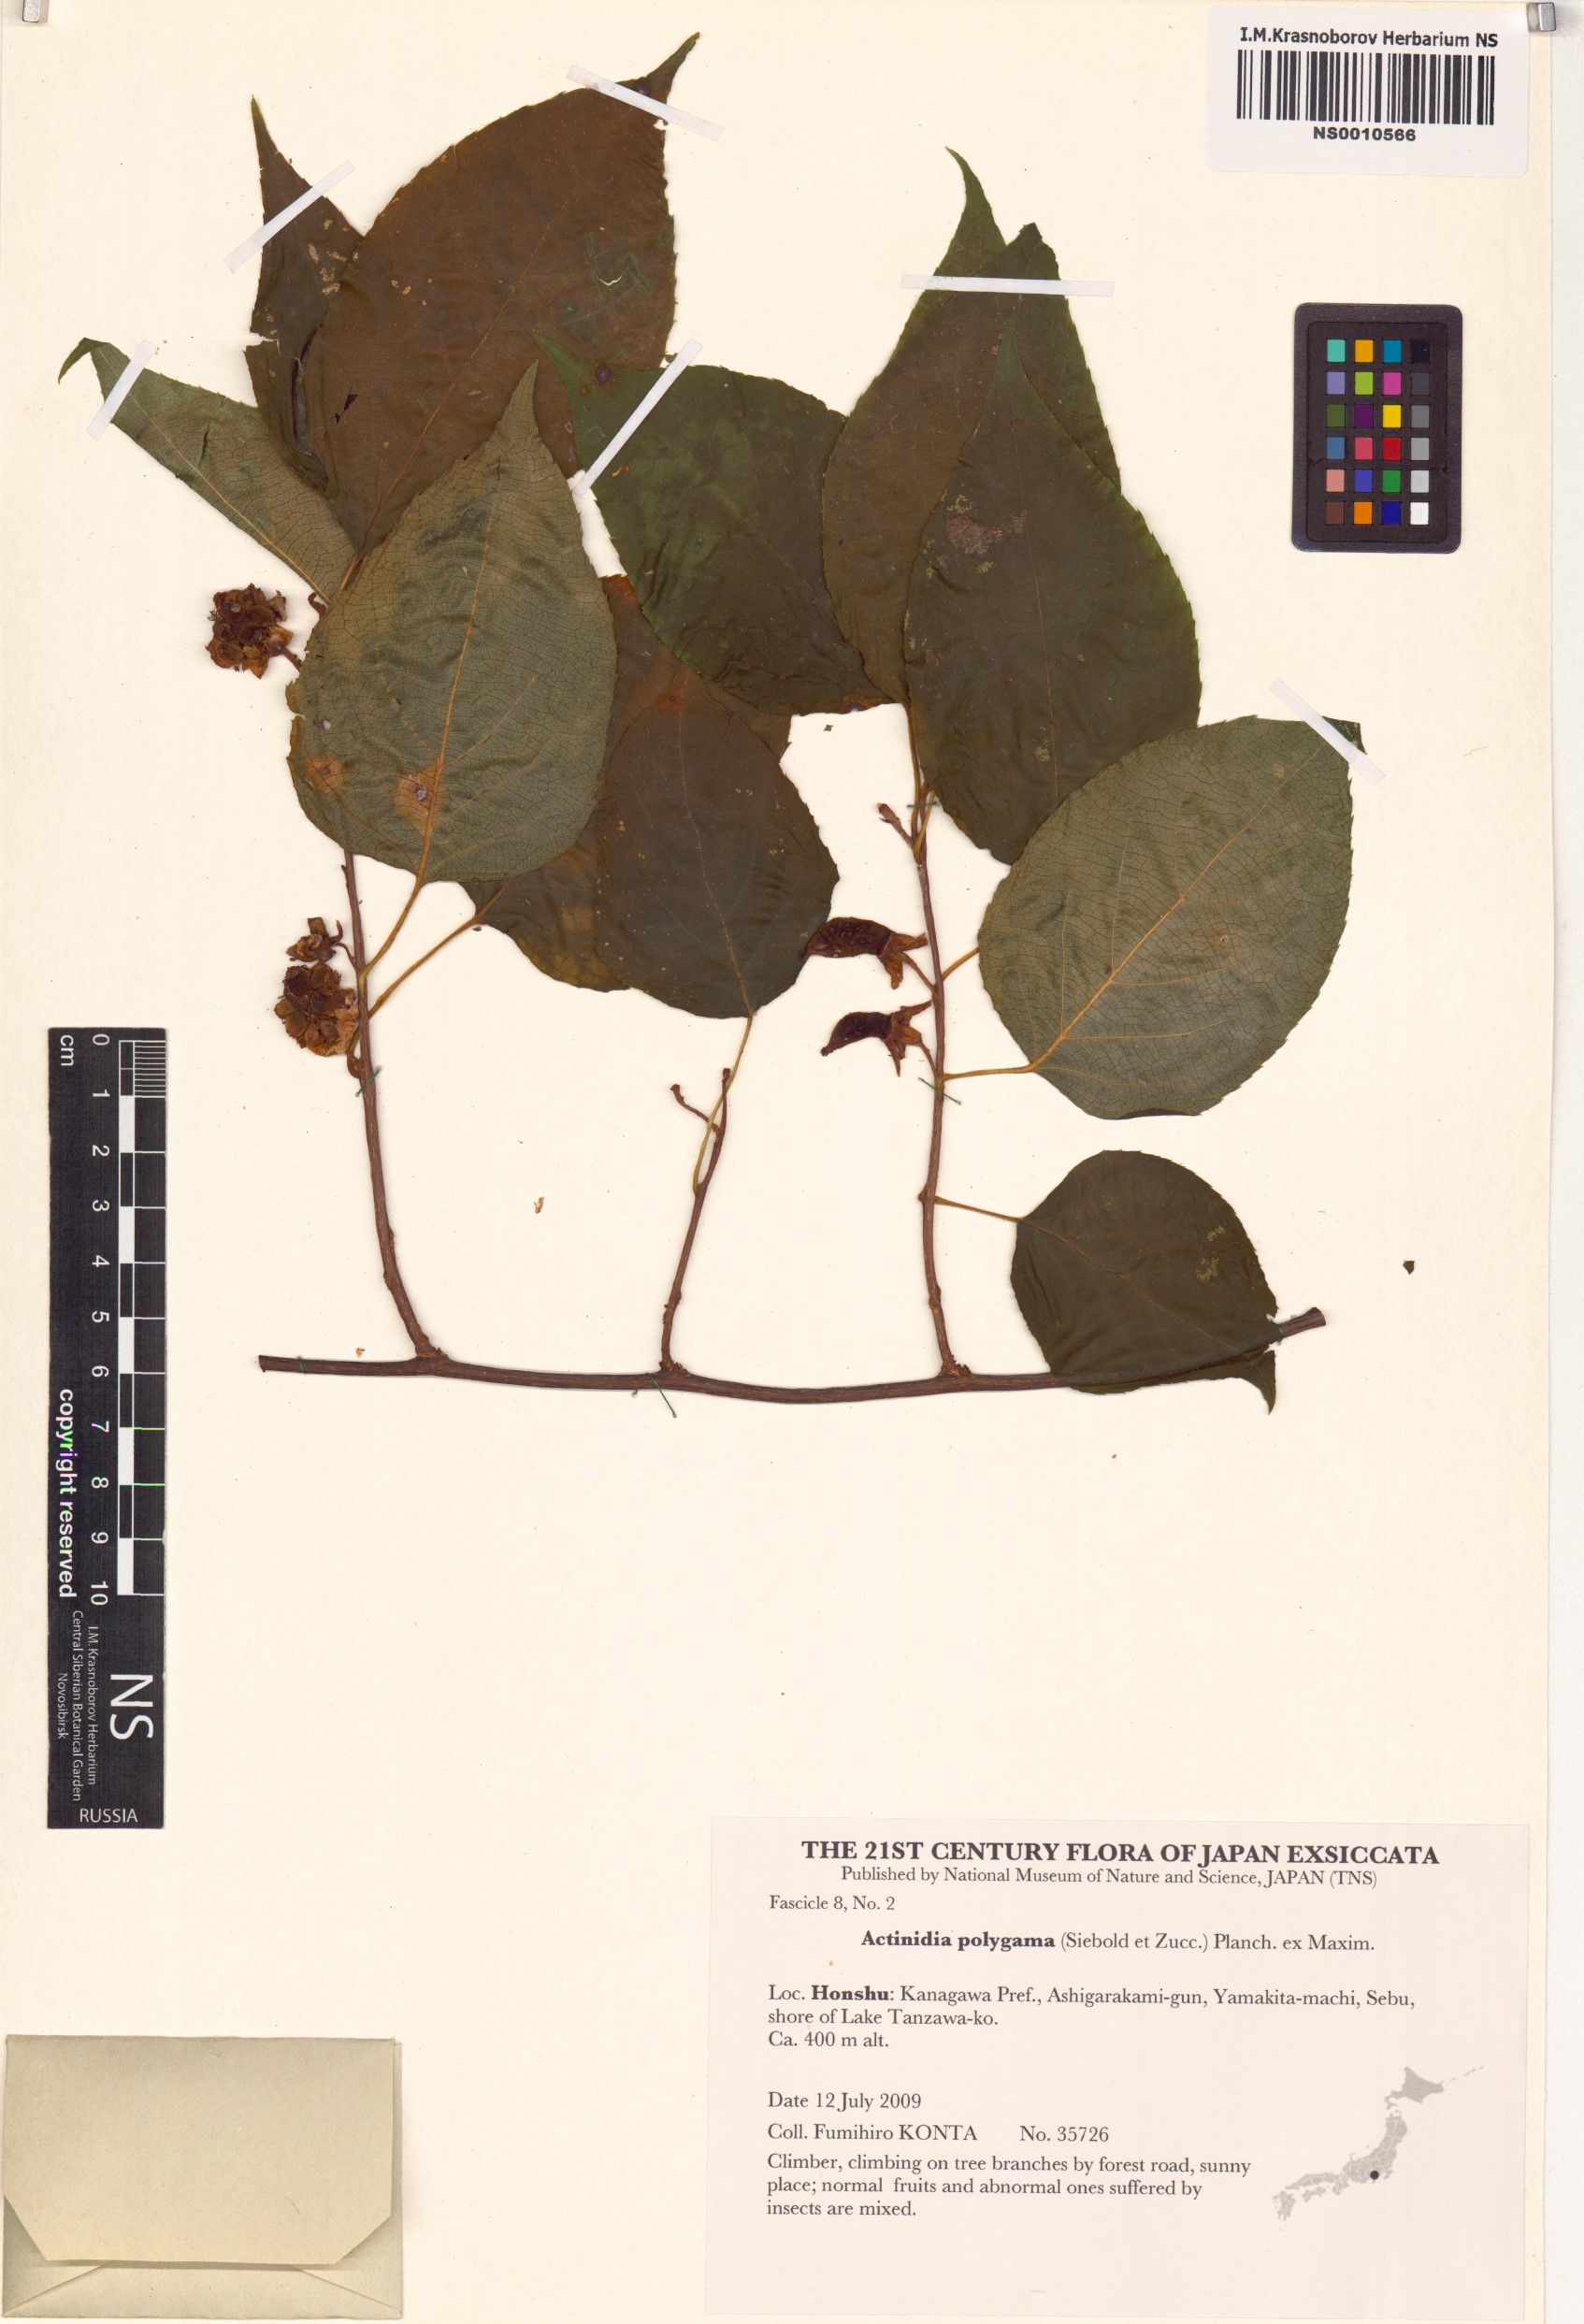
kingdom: Plantae
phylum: Tracheophyta
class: Magnoliopsida
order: Ericales
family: Actinidiaceae
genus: Actinidia
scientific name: Actinidia polygama
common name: Silver vine
